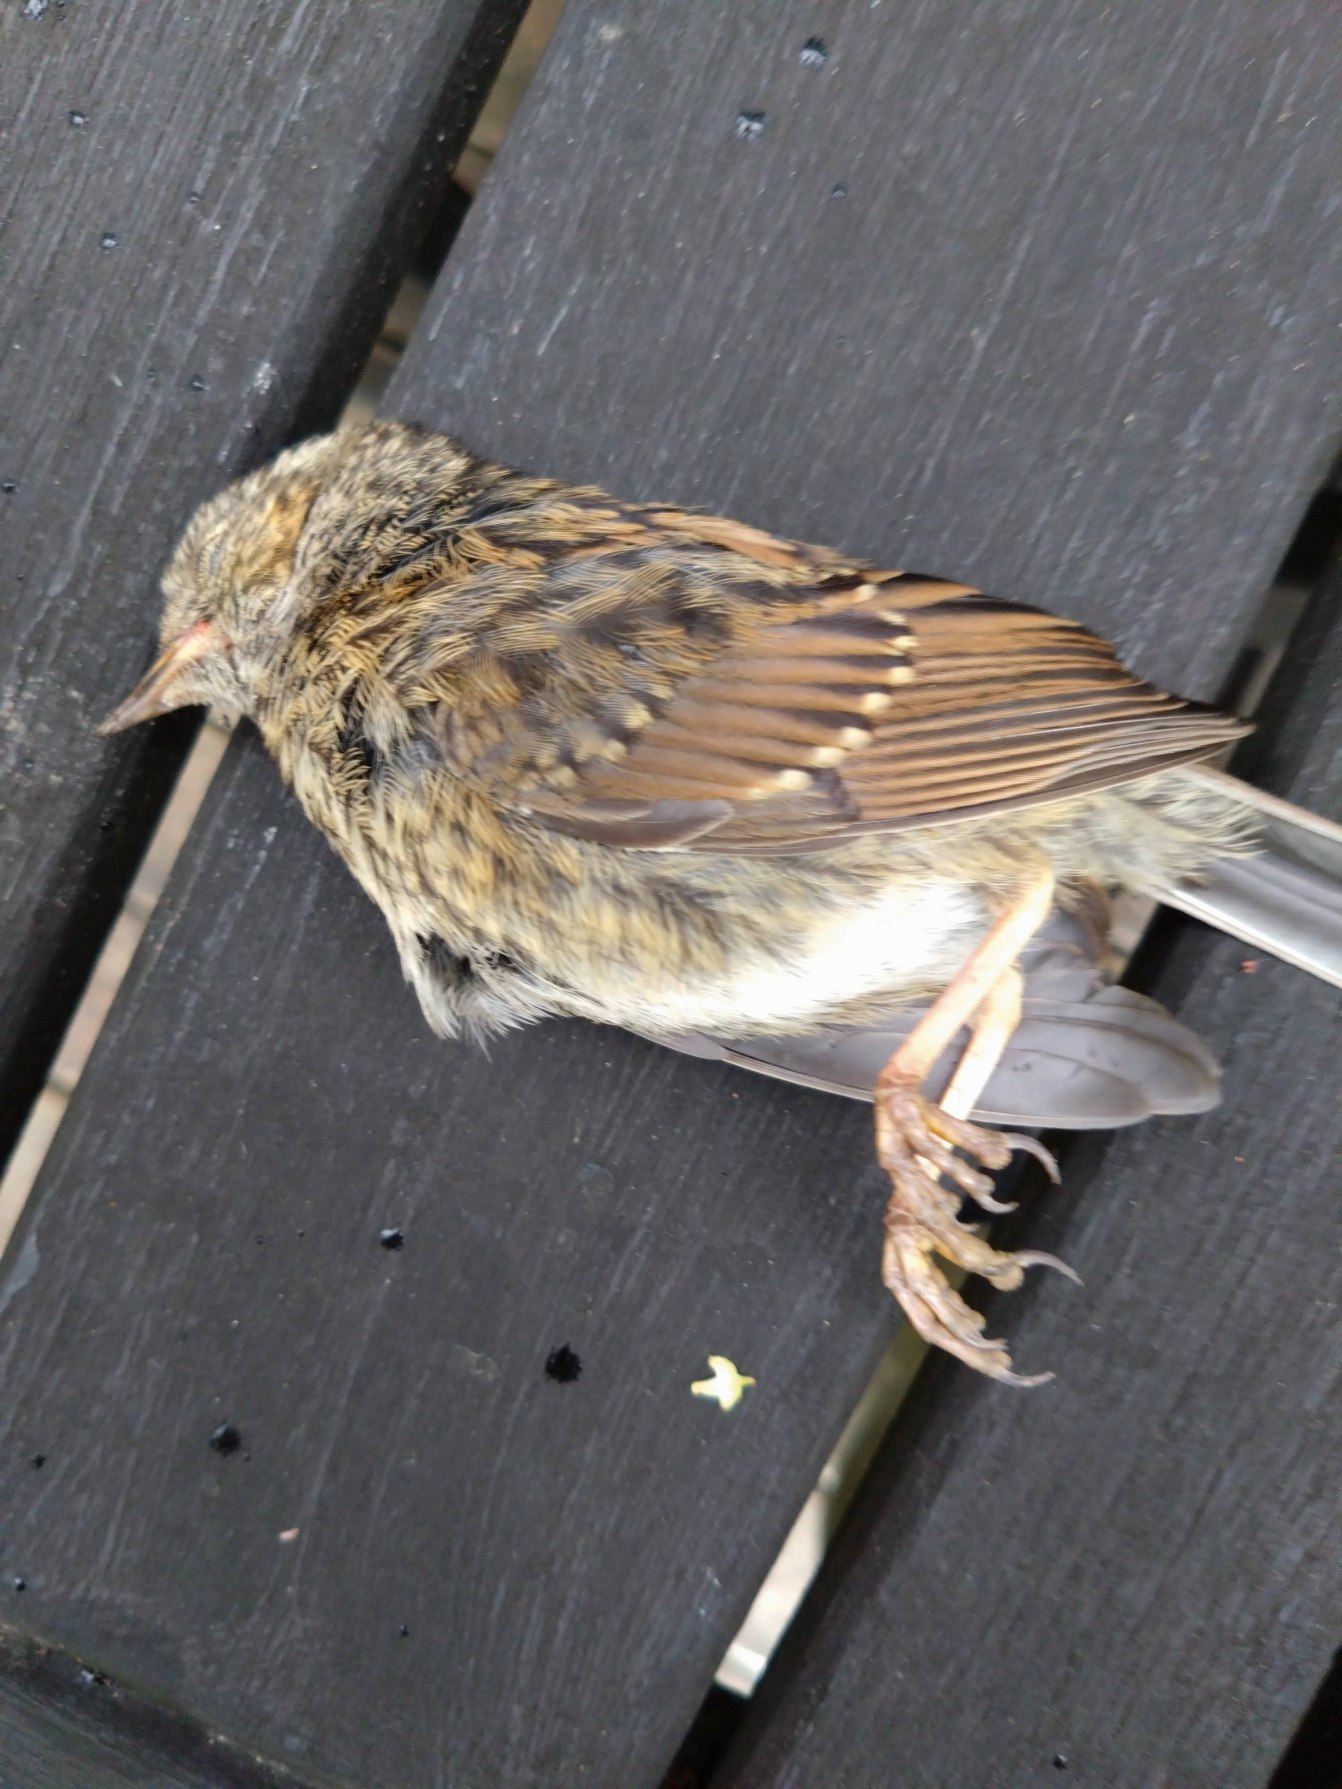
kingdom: Animalia
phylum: Chordata
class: Aves
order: Passeriformes
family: Prunellidae
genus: Prunella
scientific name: Prunella modularis
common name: Jernspurv
